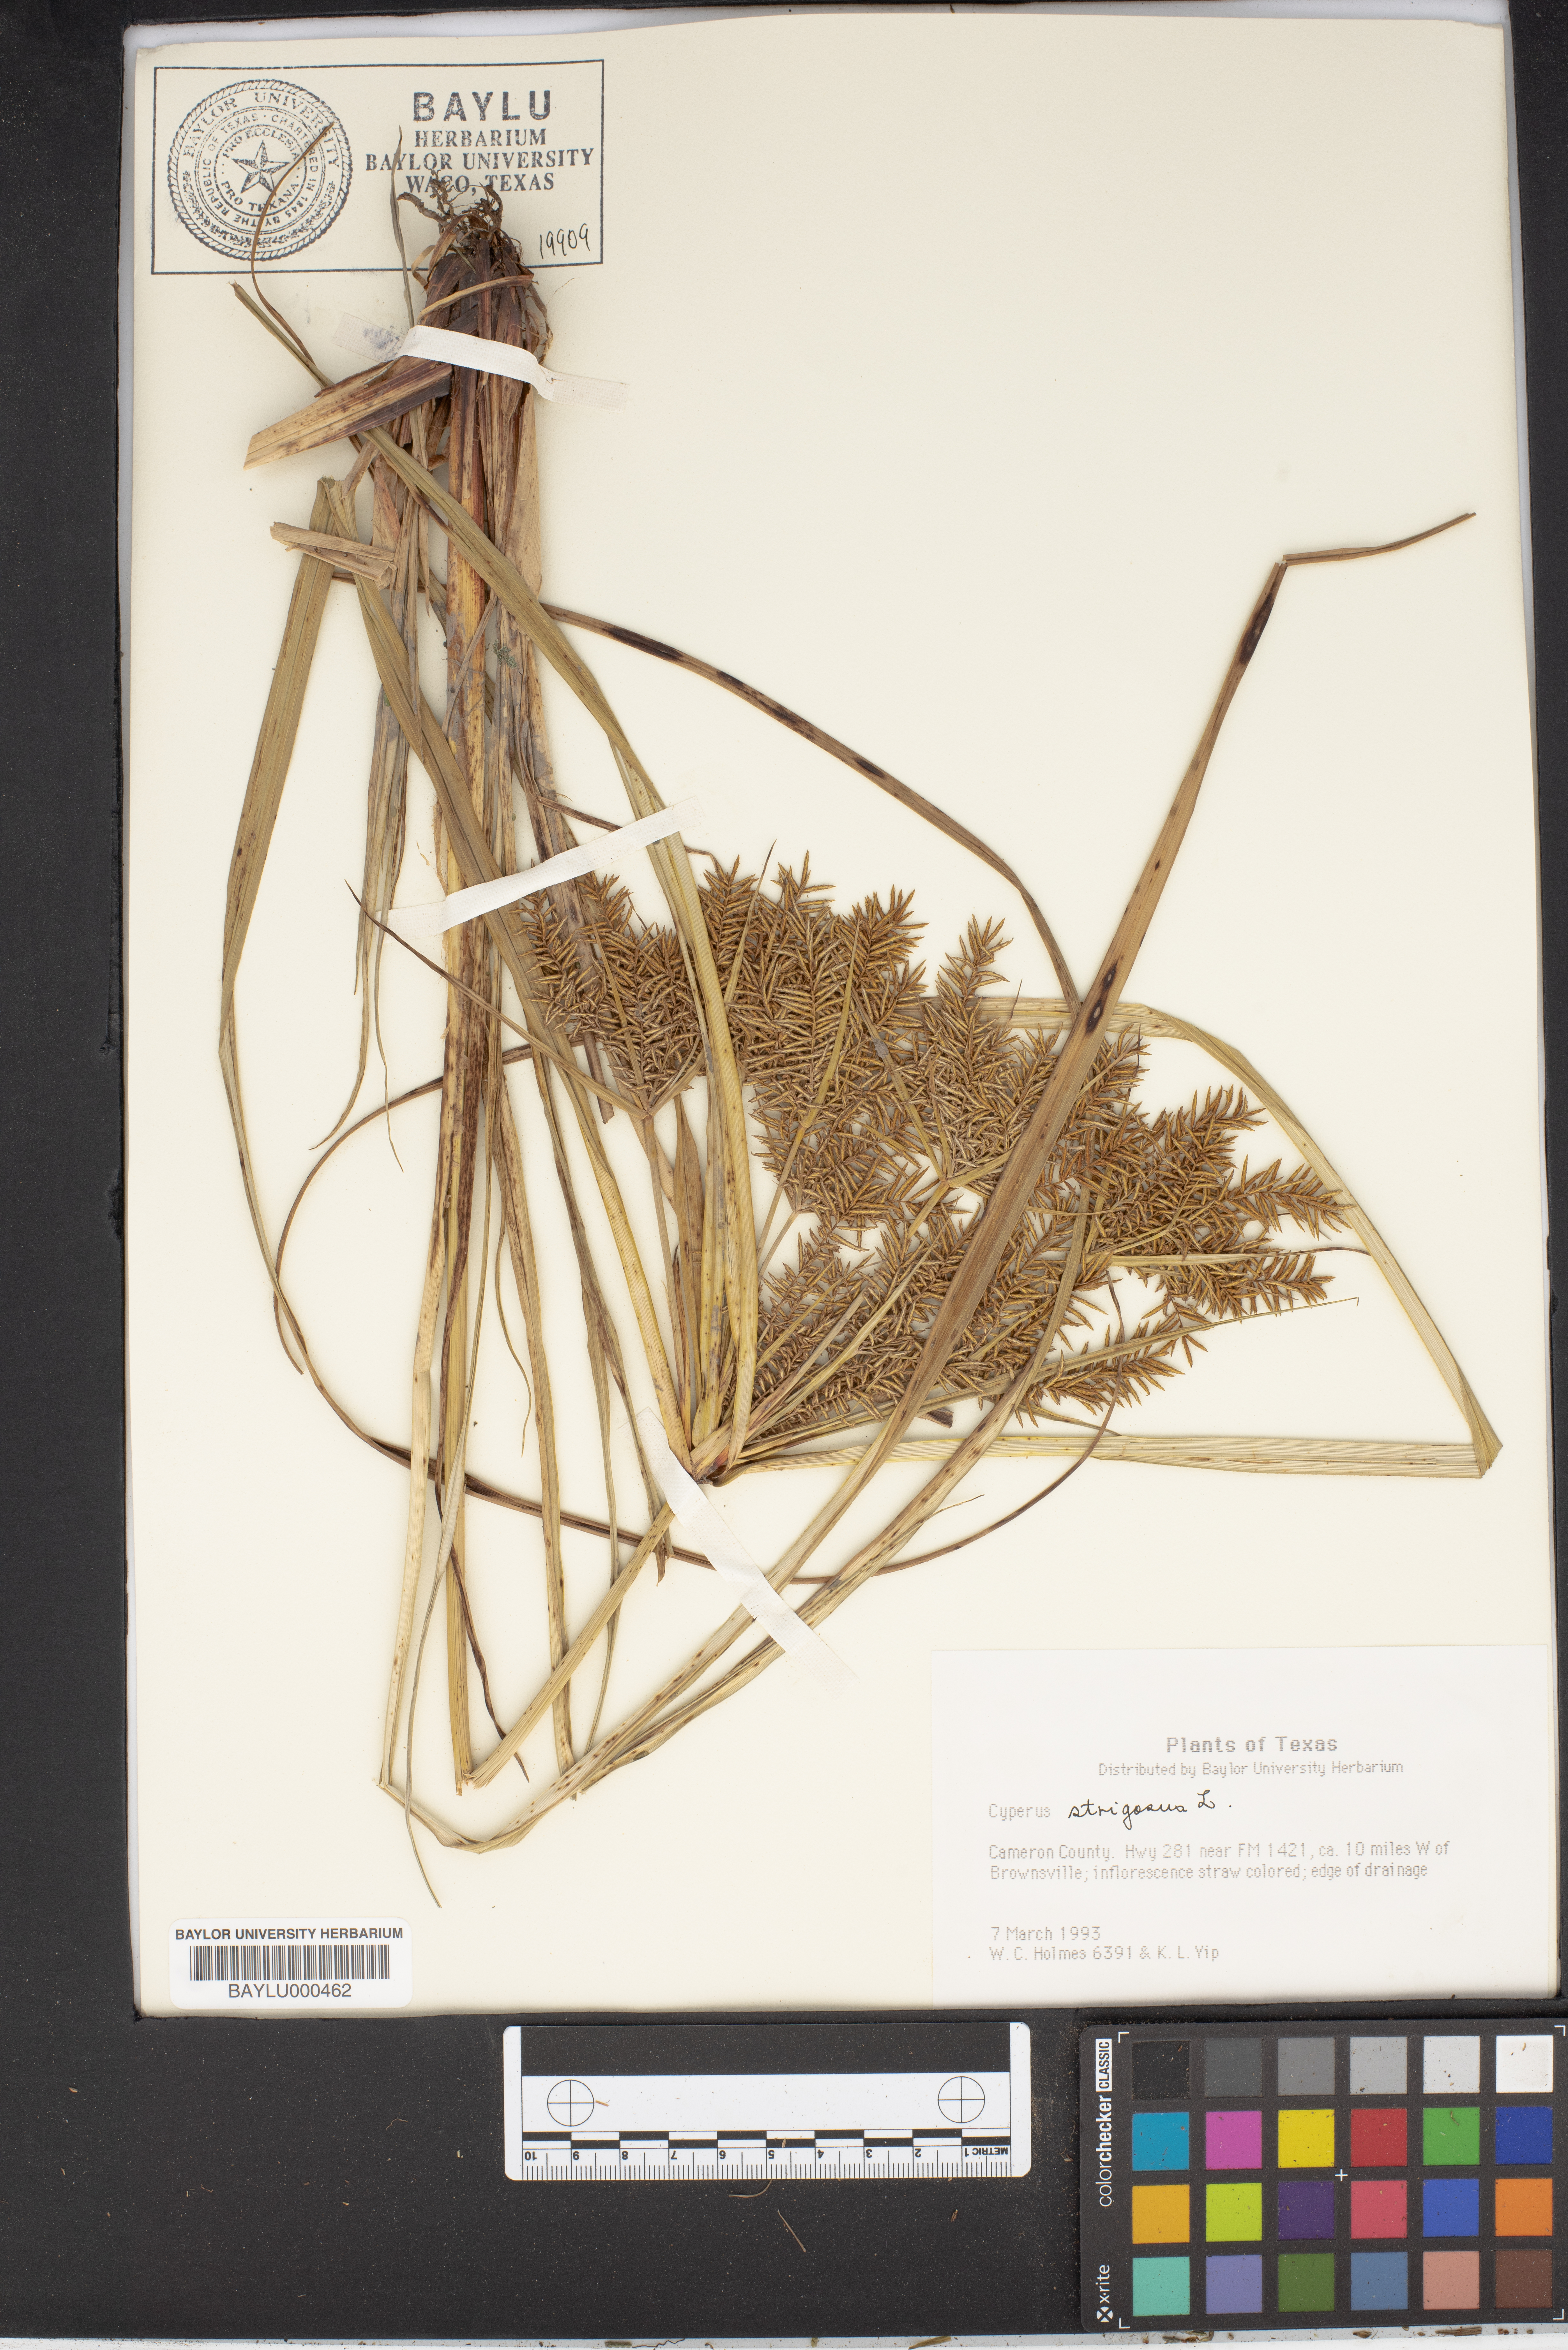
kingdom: Plantae
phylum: Tracheophyta
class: Liliopsida
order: Poales
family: Cyperaceae
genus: Cyperus
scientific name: Cyperus strigosus
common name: False nutsedge
